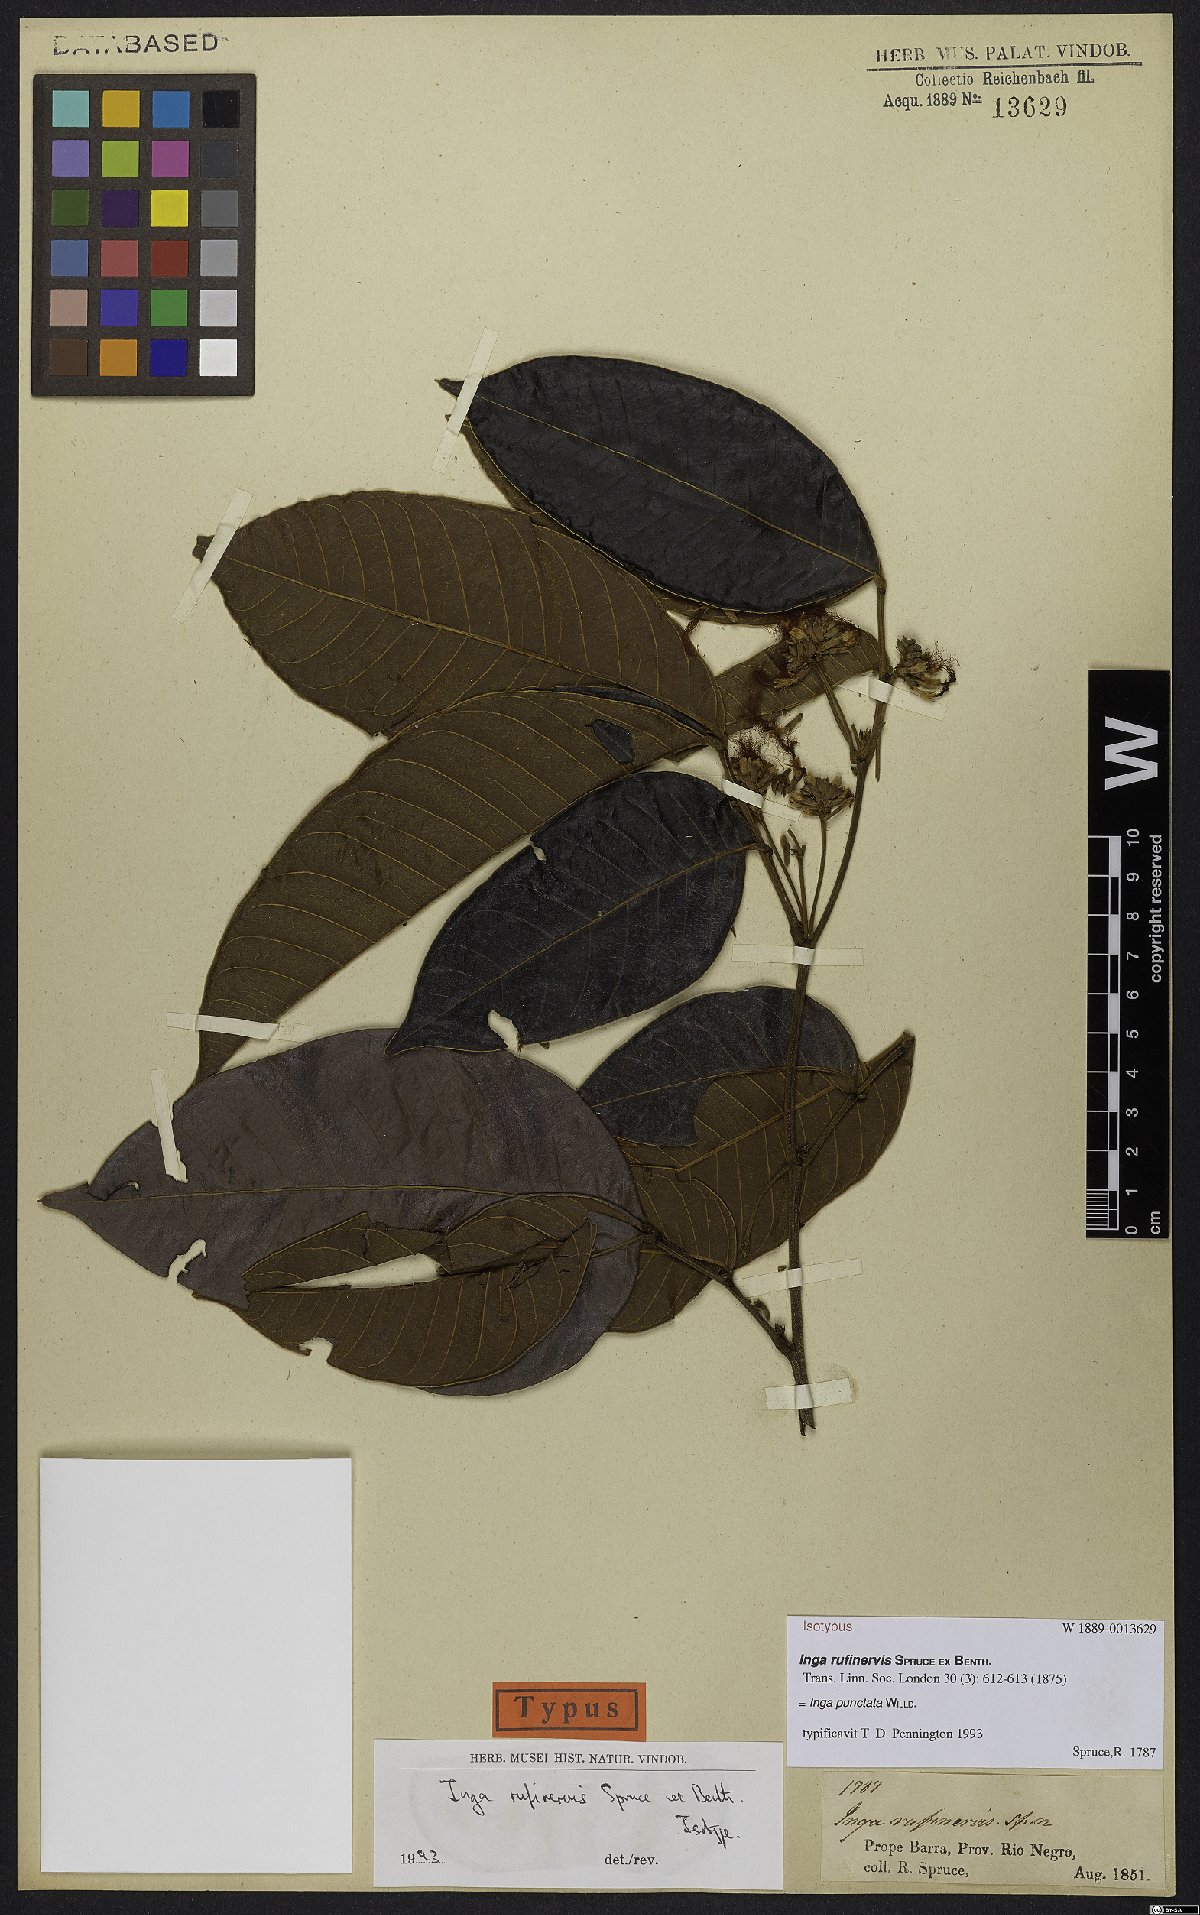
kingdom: Plantae
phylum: Tracheophyta
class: Magnoliopsida
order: Fabales
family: Fabaceae
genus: Inga
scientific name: Inga punctata
